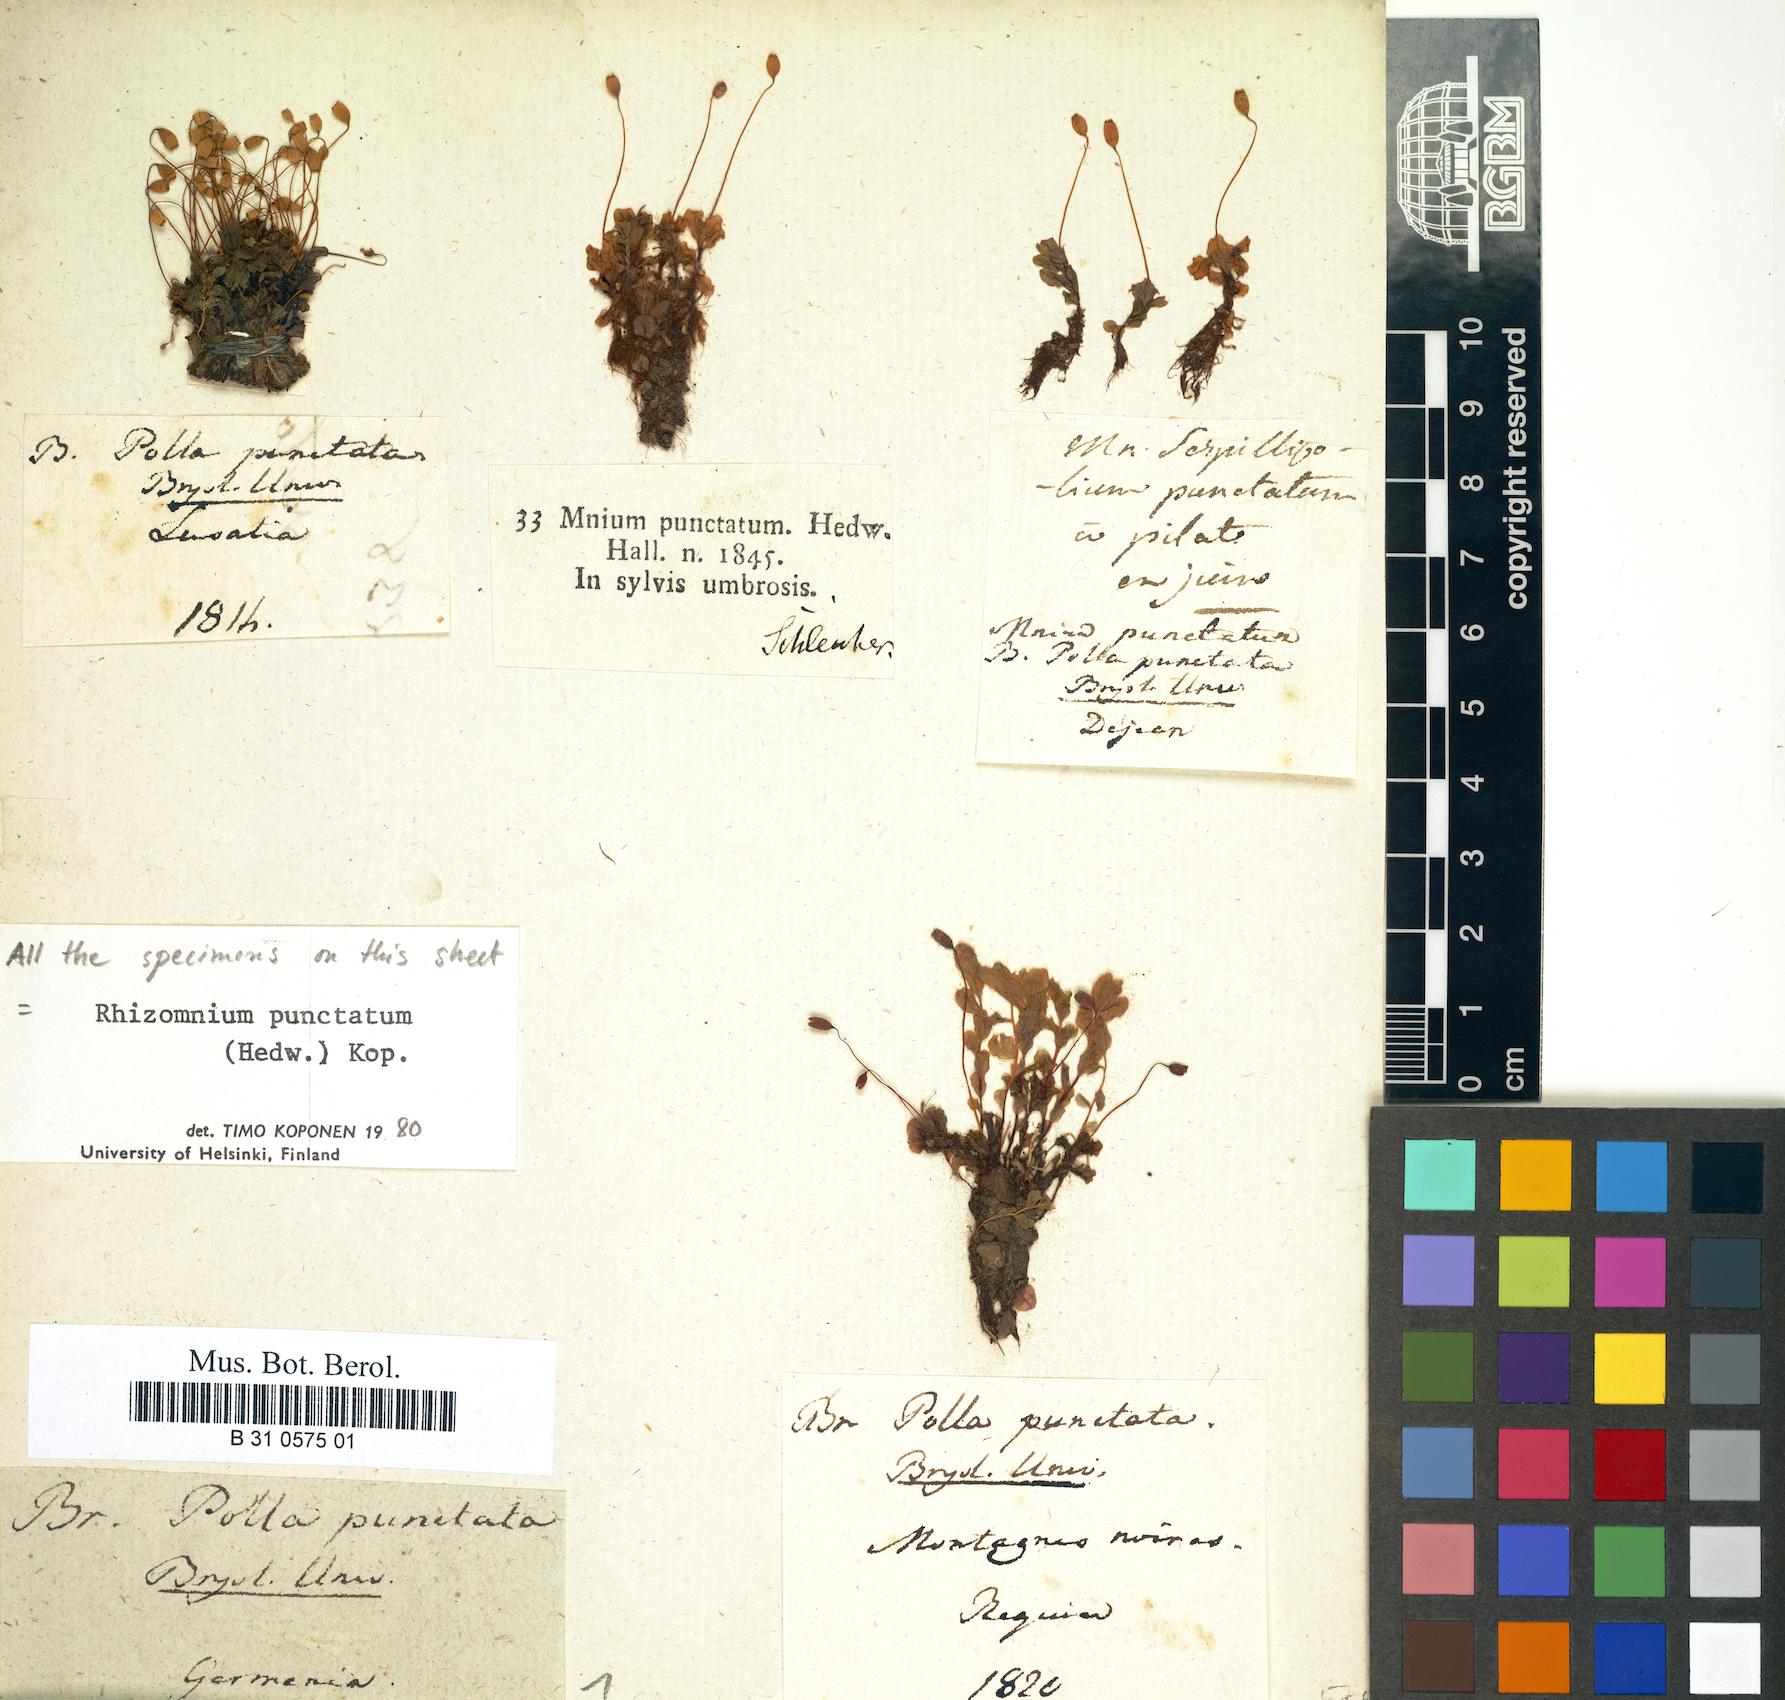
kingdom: Plantae
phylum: Bryophyta
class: Bryopsida
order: Bryales
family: Mniaceae
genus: Rhizomnium
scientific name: Rhizomnium punctatum
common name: Dotted leafy moss
